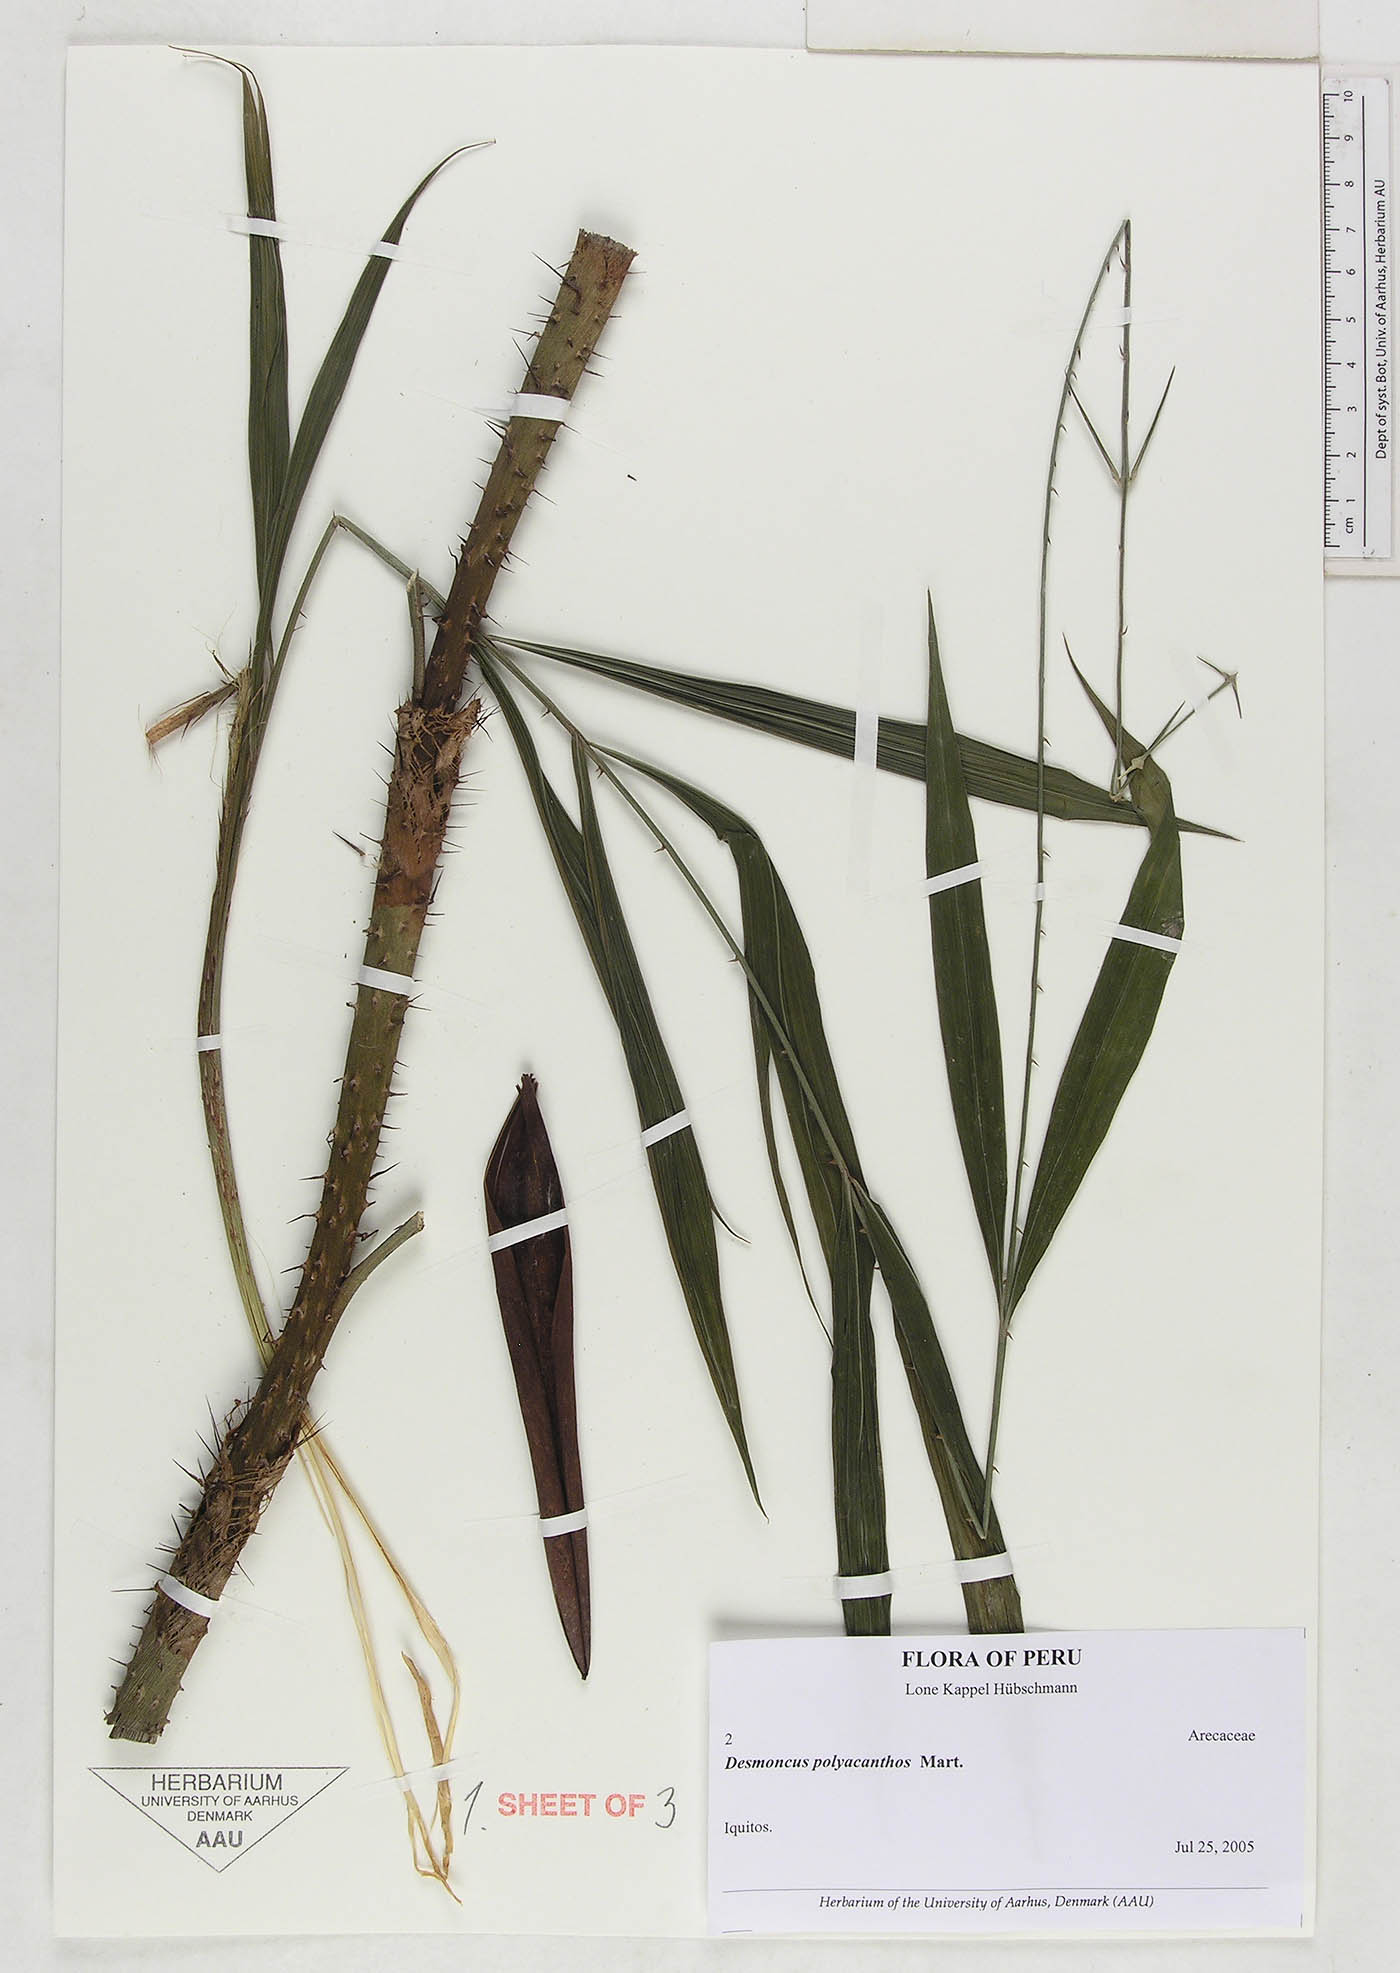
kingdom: Plantae
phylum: Tracheophyta
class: Liliopsida
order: Arecales
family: Arecaceae
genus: Desmoncus
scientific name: Desmoncus polyacanthos
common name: Suriname bramble palm
